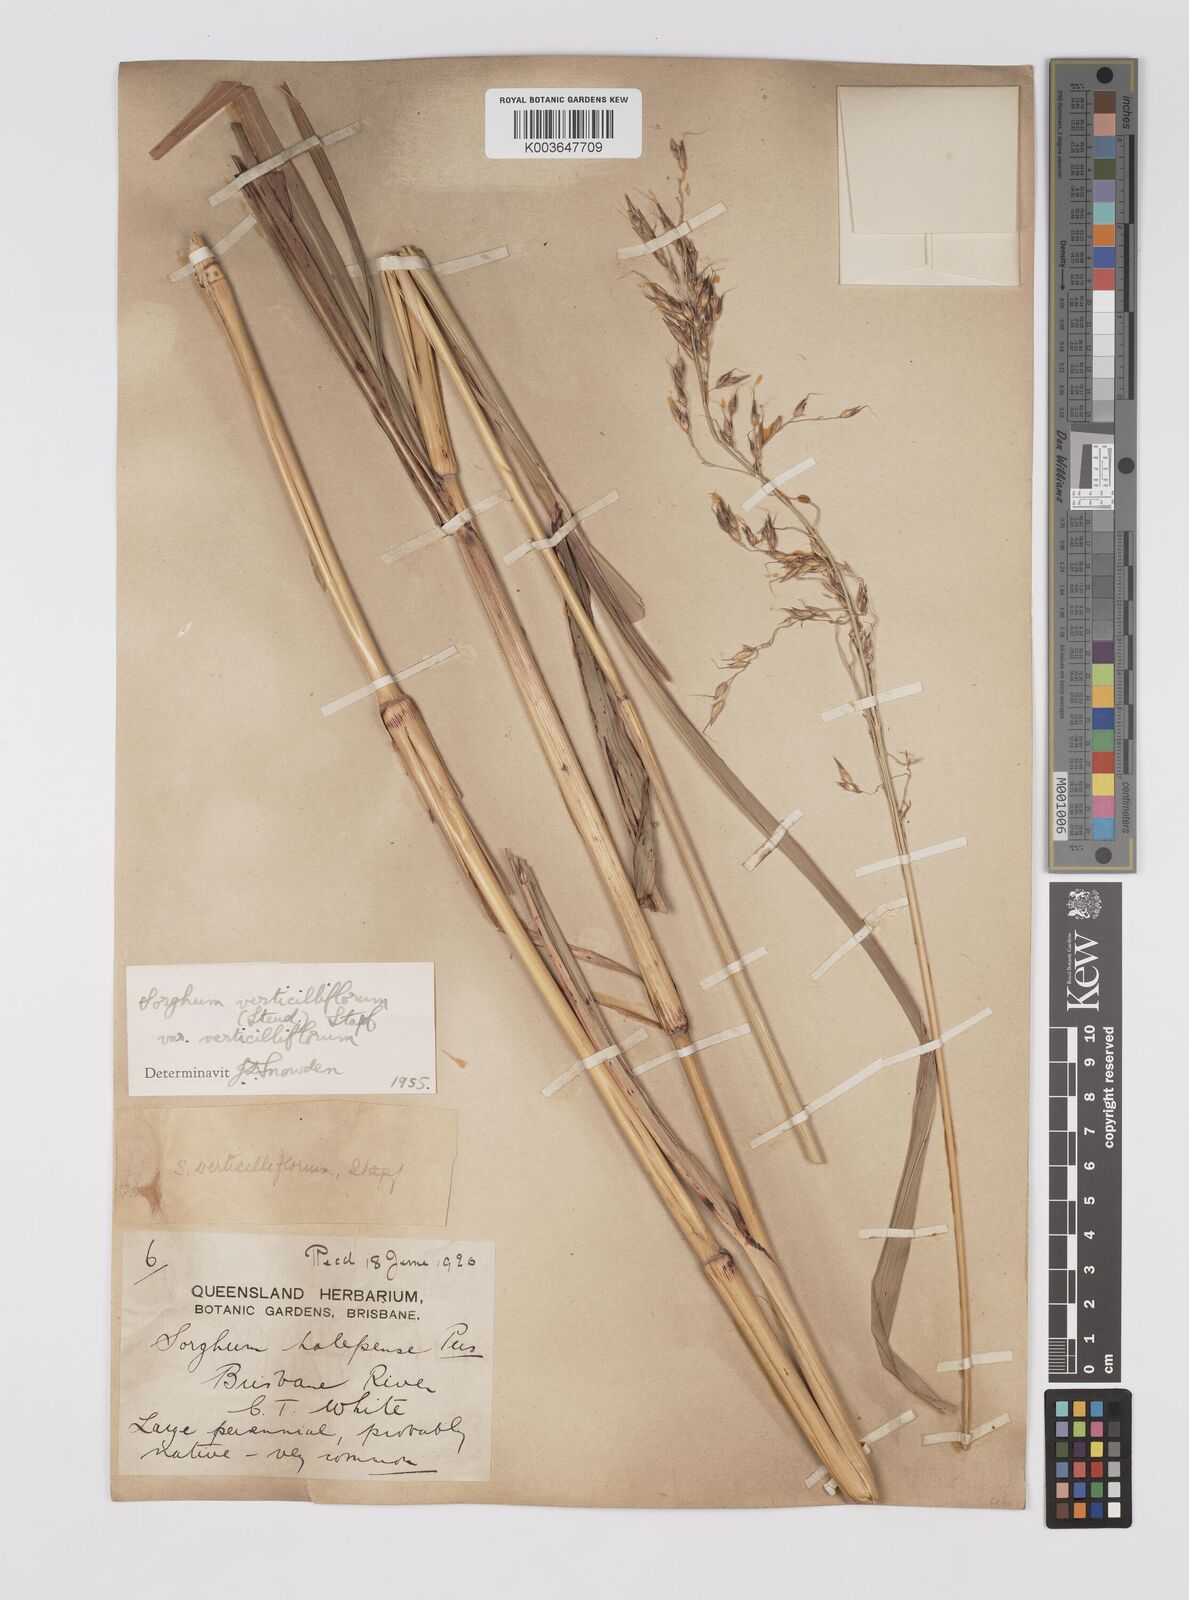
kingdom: Plantae
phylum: Tracheophyta
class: Liliopsida
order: Poales
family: Poaceae
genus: Sorghum
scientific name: Sorghum arundinaceum
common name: Sorghum
